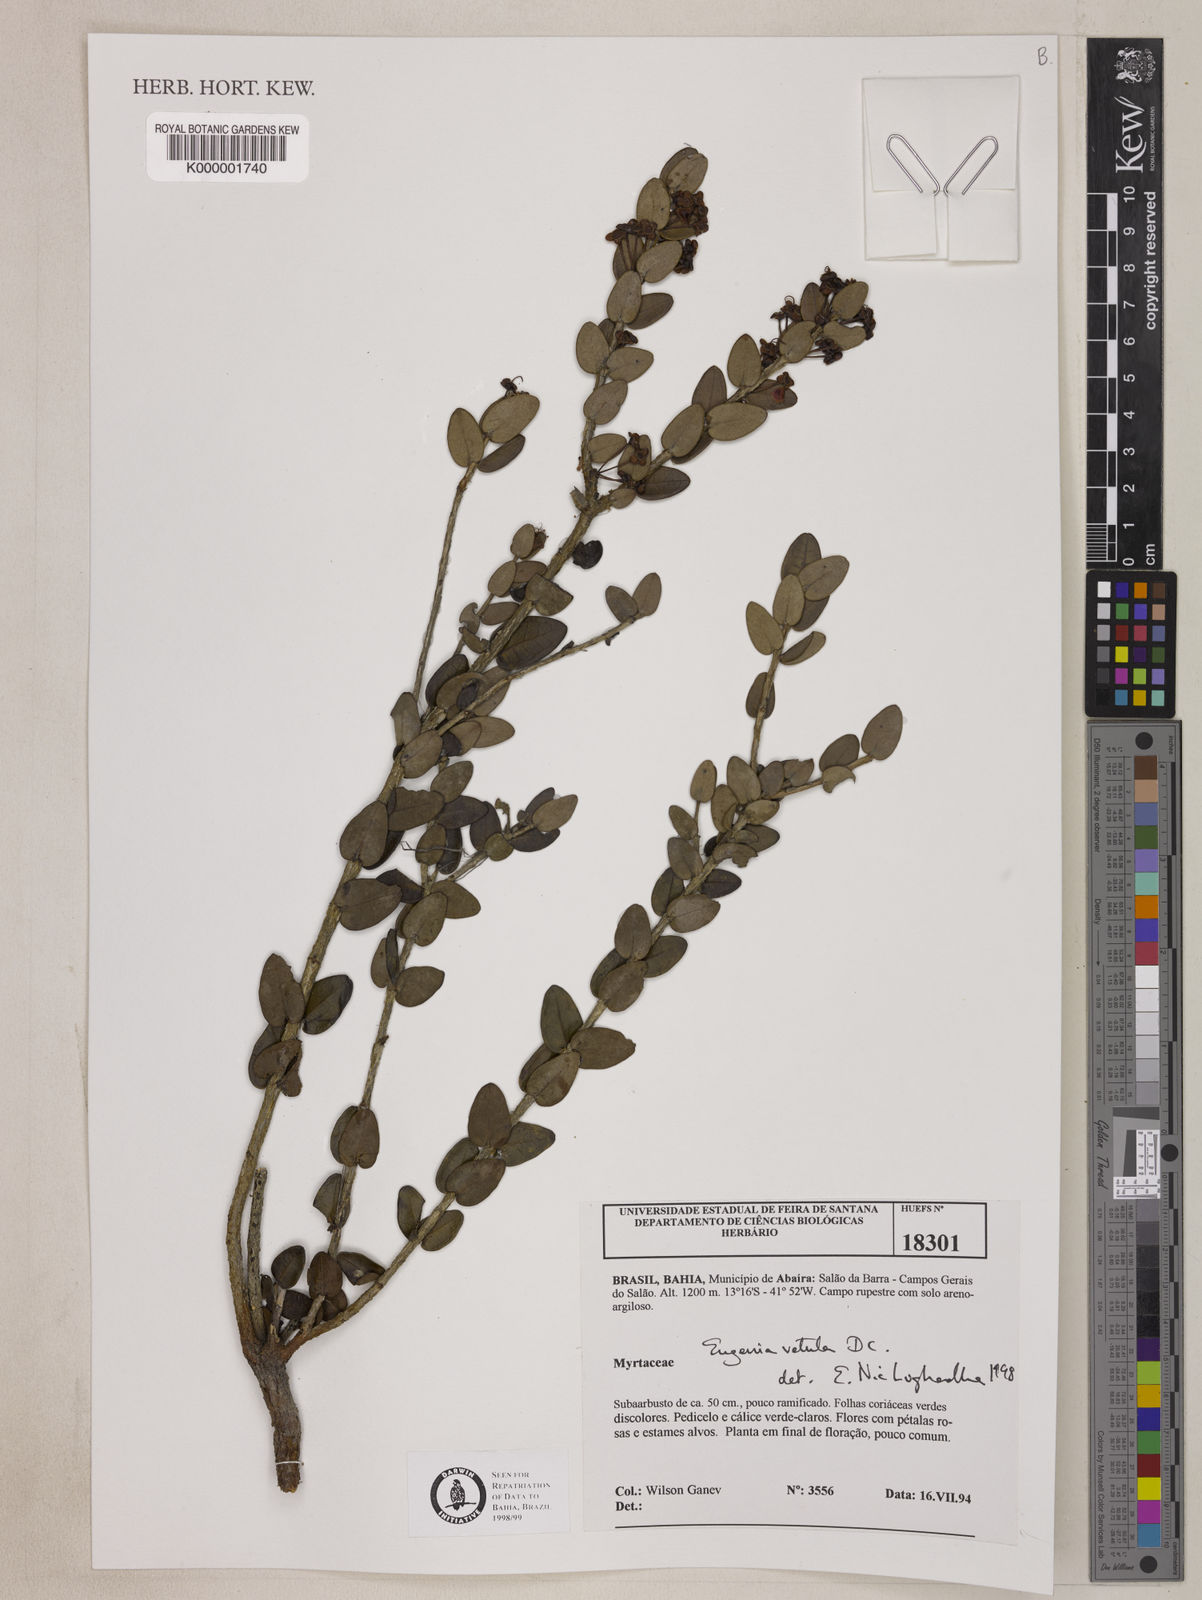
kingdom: Plantae
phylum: Tracheophyta
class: Magnoliopsida
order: Myrtales
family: Myrtaceae
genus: Eugenia
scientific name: Eugenia vetula
